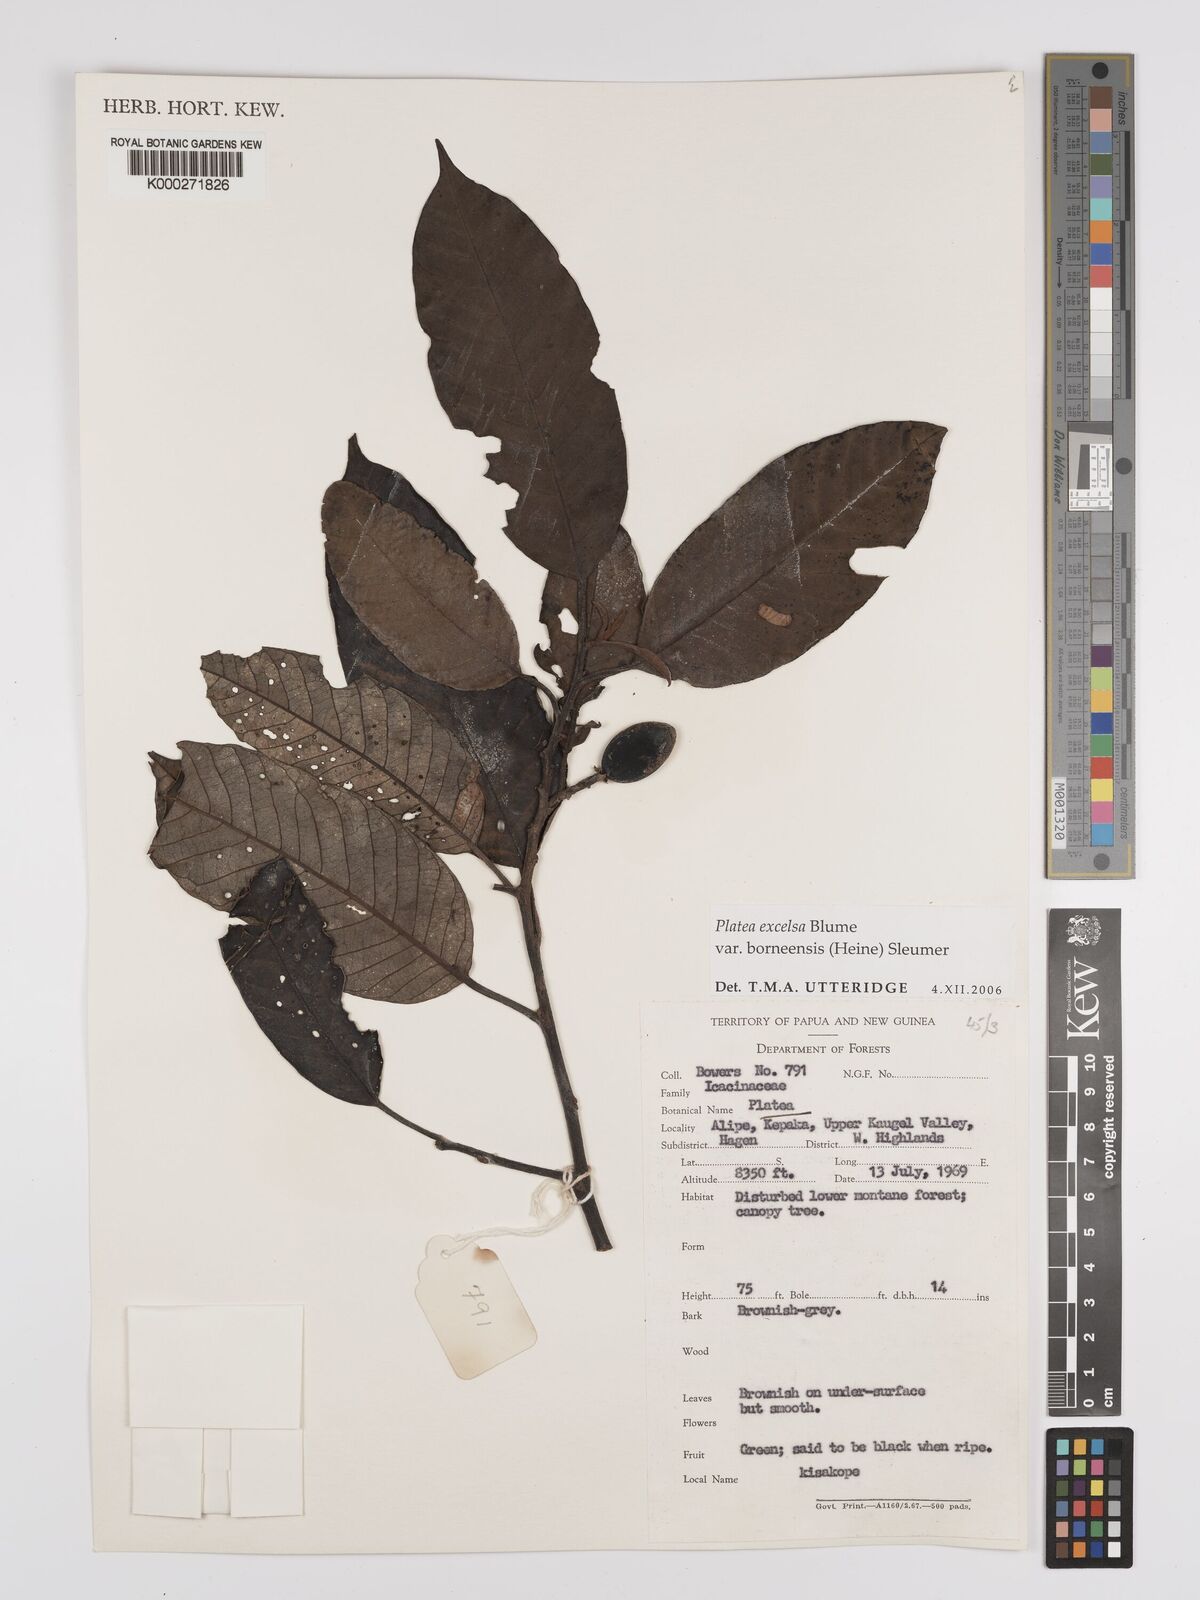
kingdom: Plantae
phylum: Tracheophyta
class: Magnoliopsida
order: Metteniusales
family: Metteniusaceae
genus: Platea
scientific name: Platea excelsa
